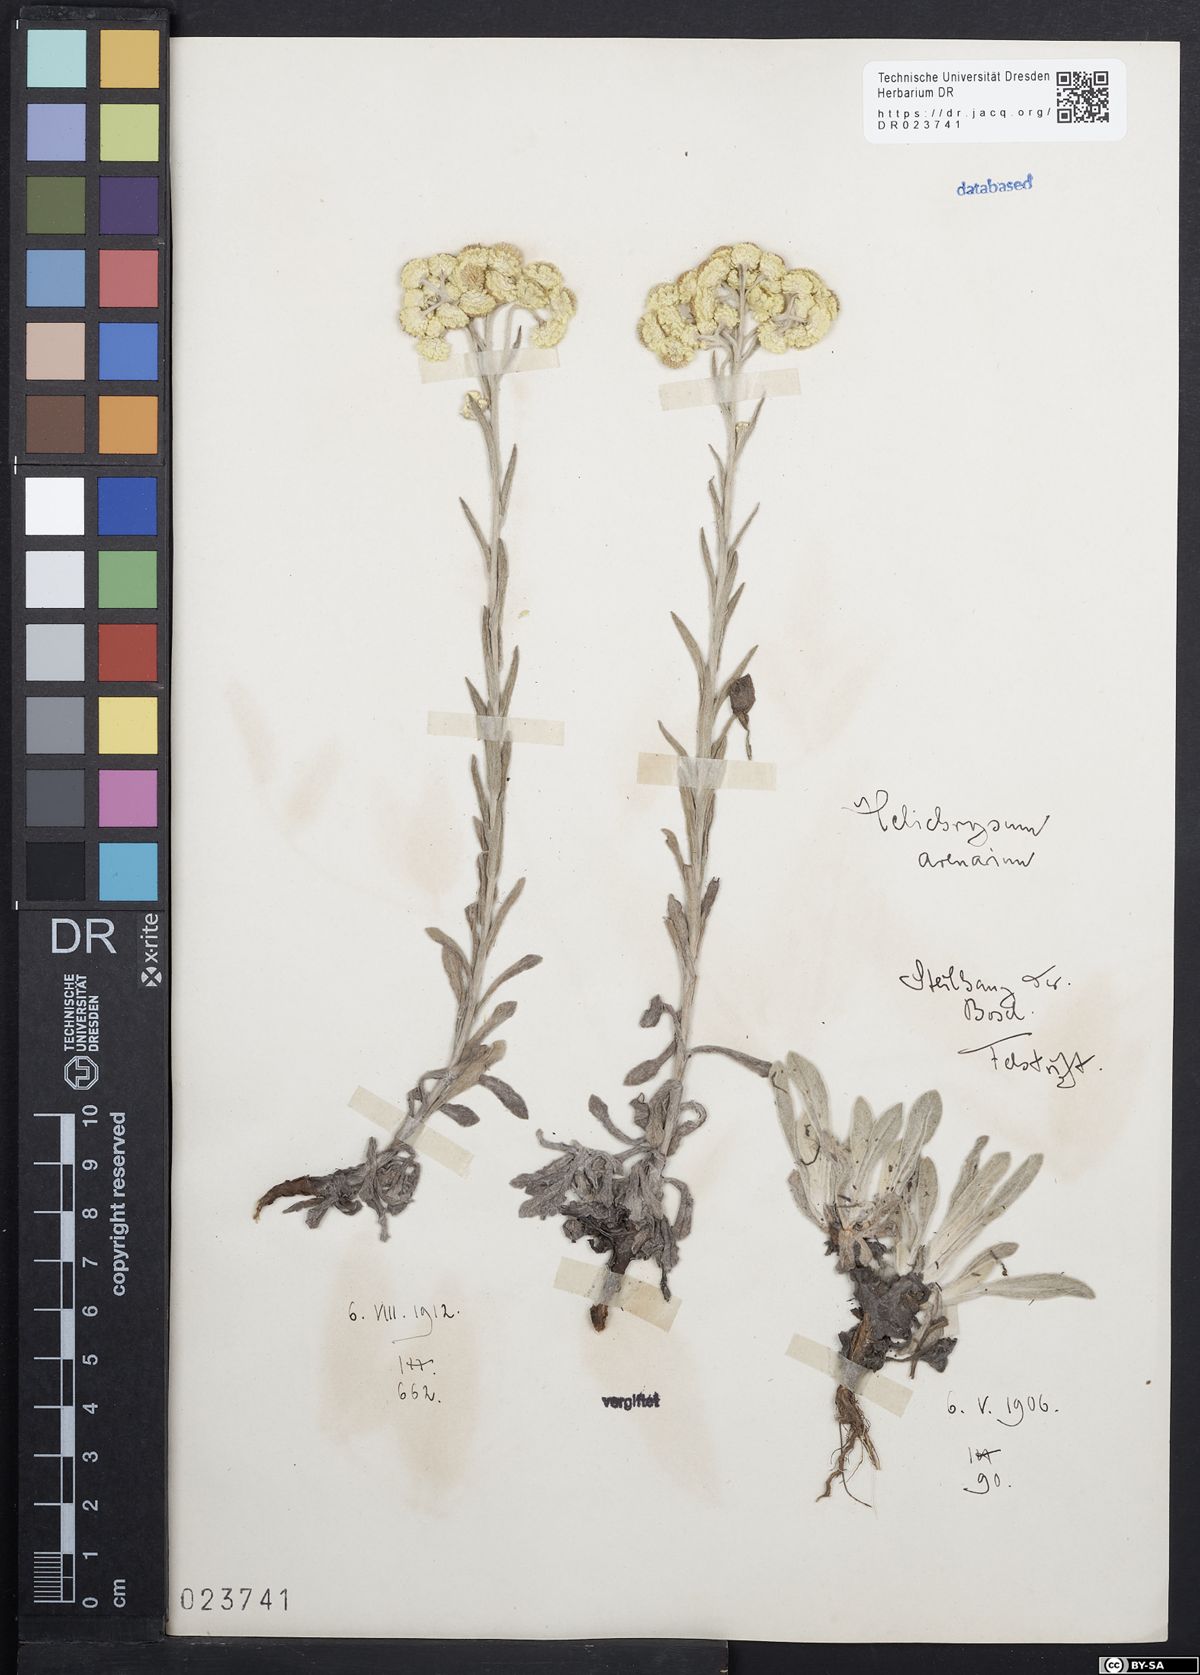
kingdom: Plantae
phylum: Tracheophyta
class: Magnoliopsida
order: Asterales
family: Asteraceae
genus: Helichrysum
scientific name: Helichrysum arenarium
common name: Strawflower
